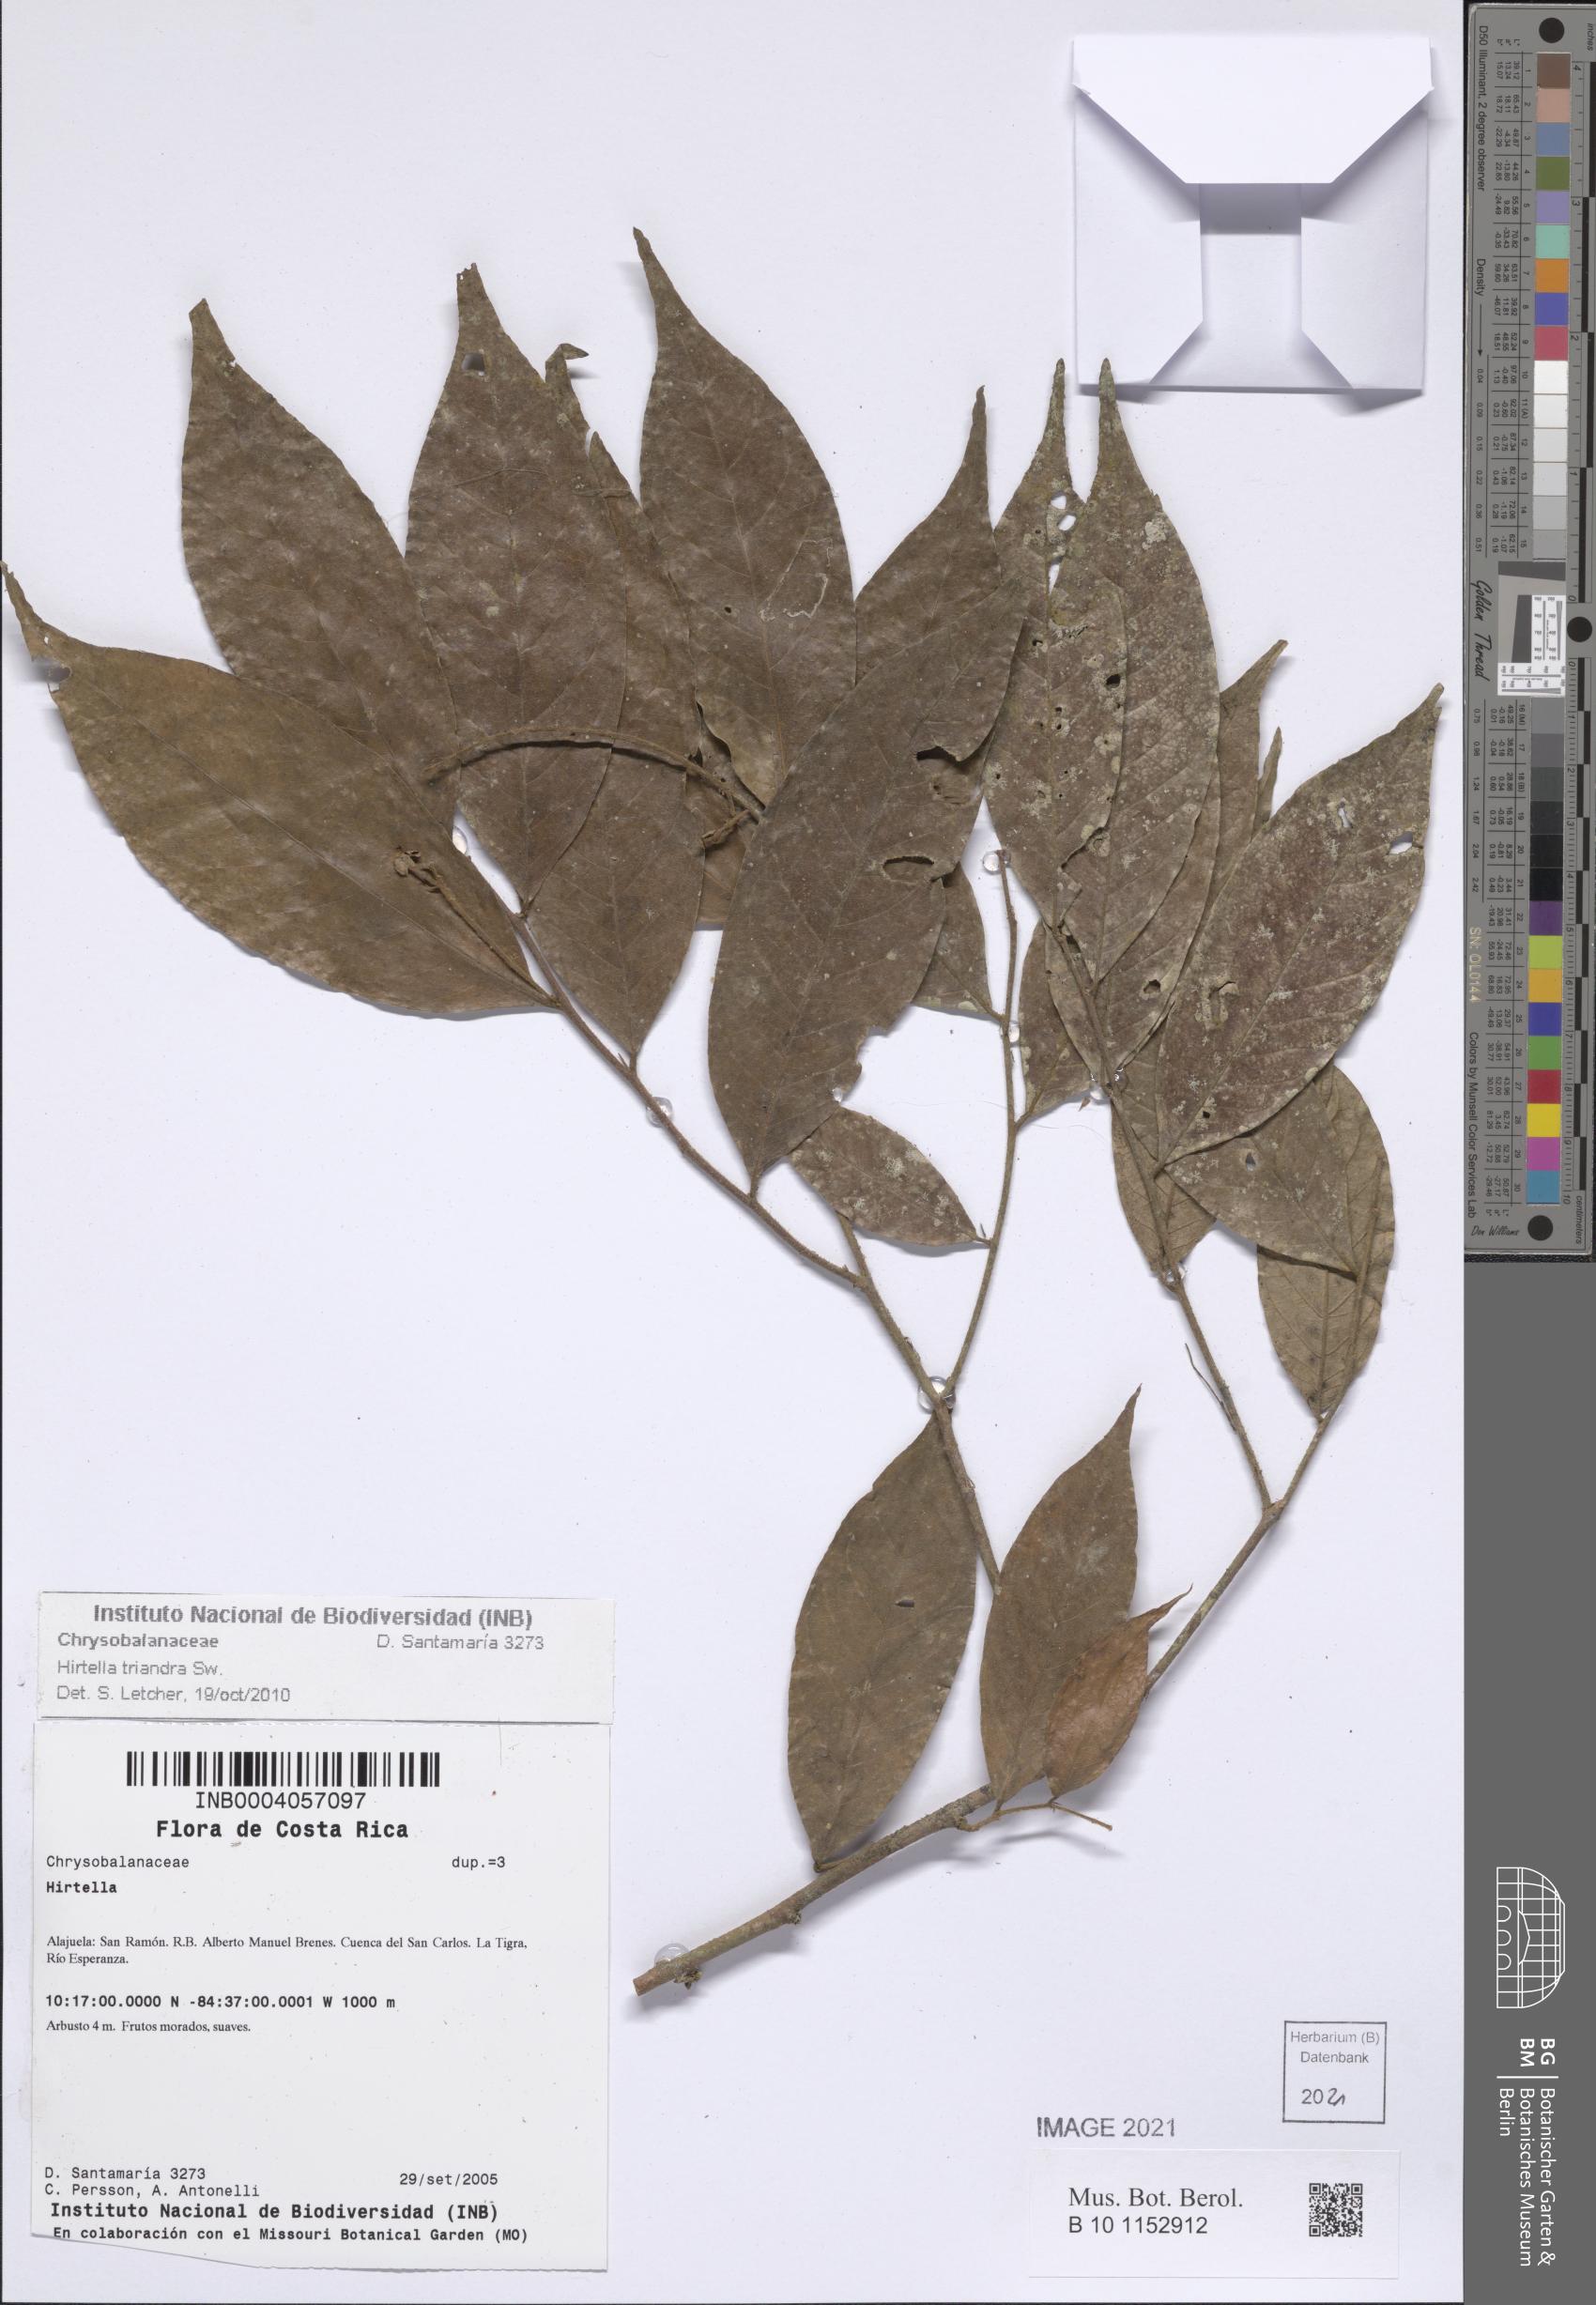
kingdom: Plantae
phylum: Tracheophyta
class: Magnoliopsida
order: Malpighiales
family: Chrysobalanaceae
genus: Hirtella
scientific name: Hirtella triandra
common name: Hairy plum
